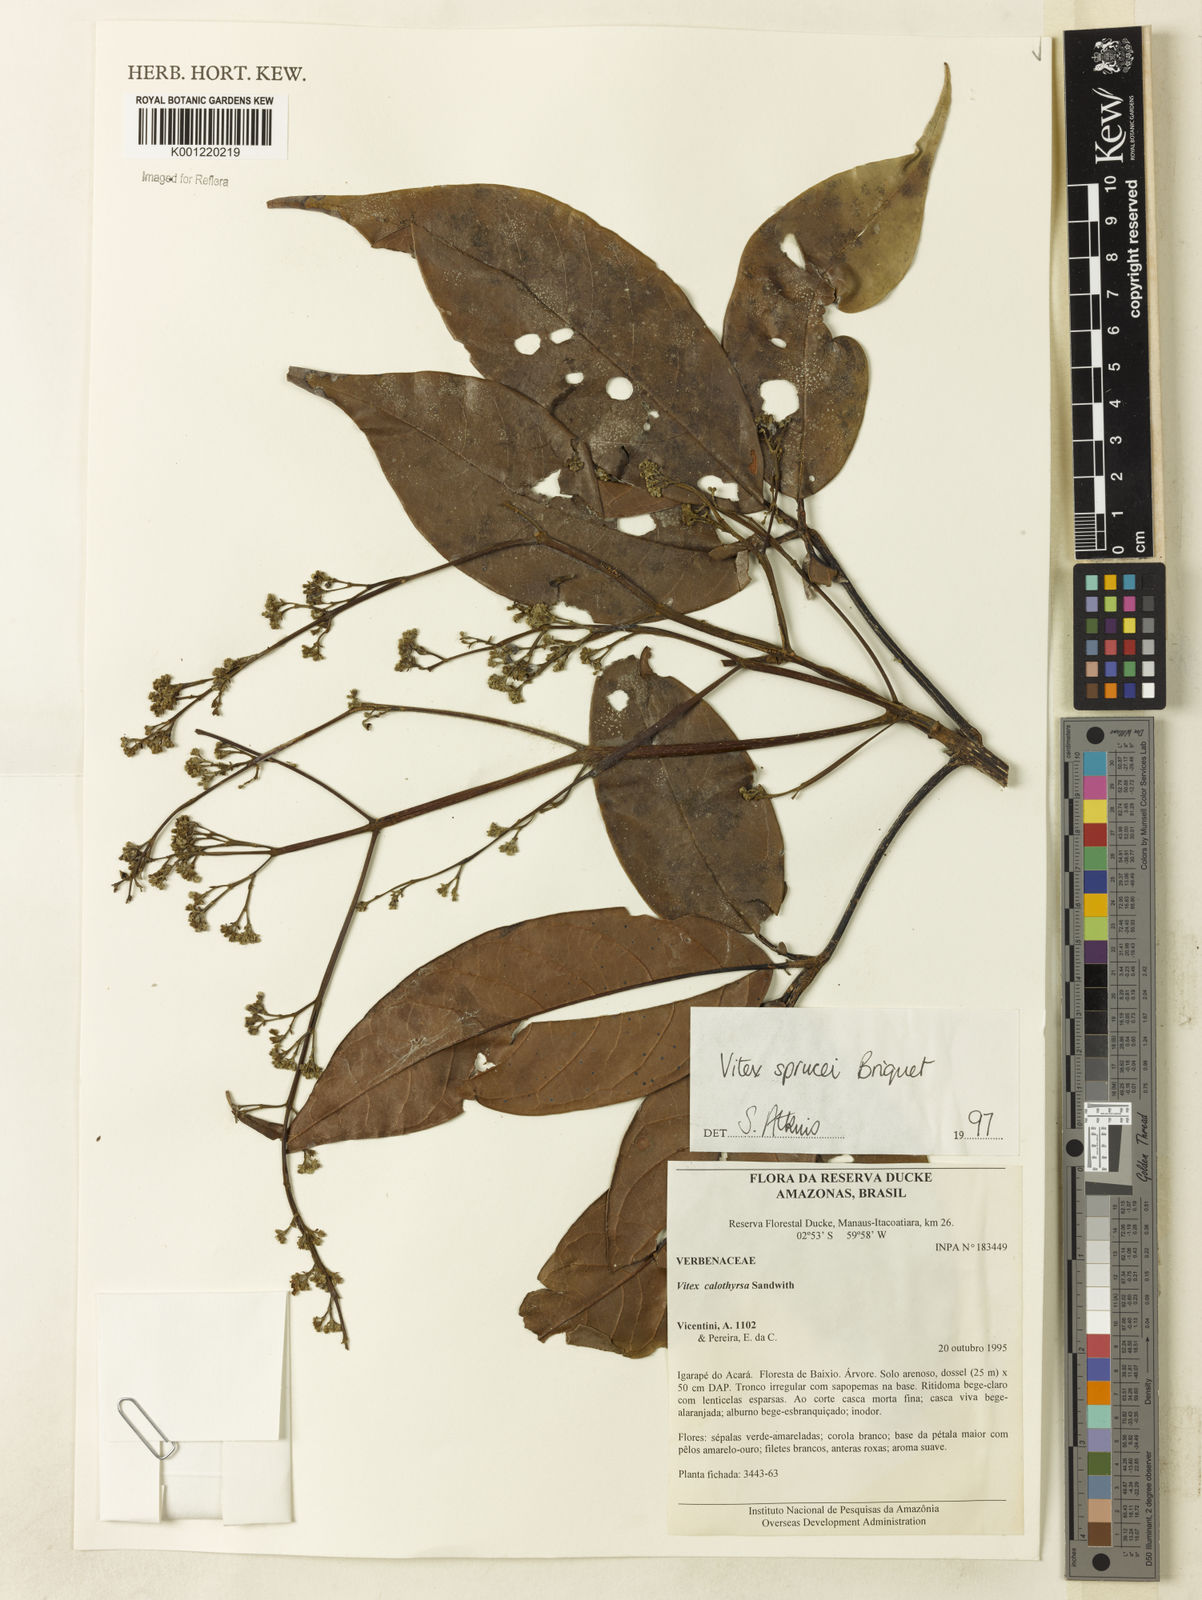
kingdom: Plantae
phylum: Tracheophyta
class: Magnoliopsida
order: Lamiales
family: Lamiaceae
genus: Vitex
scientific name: Vitex sprucei
